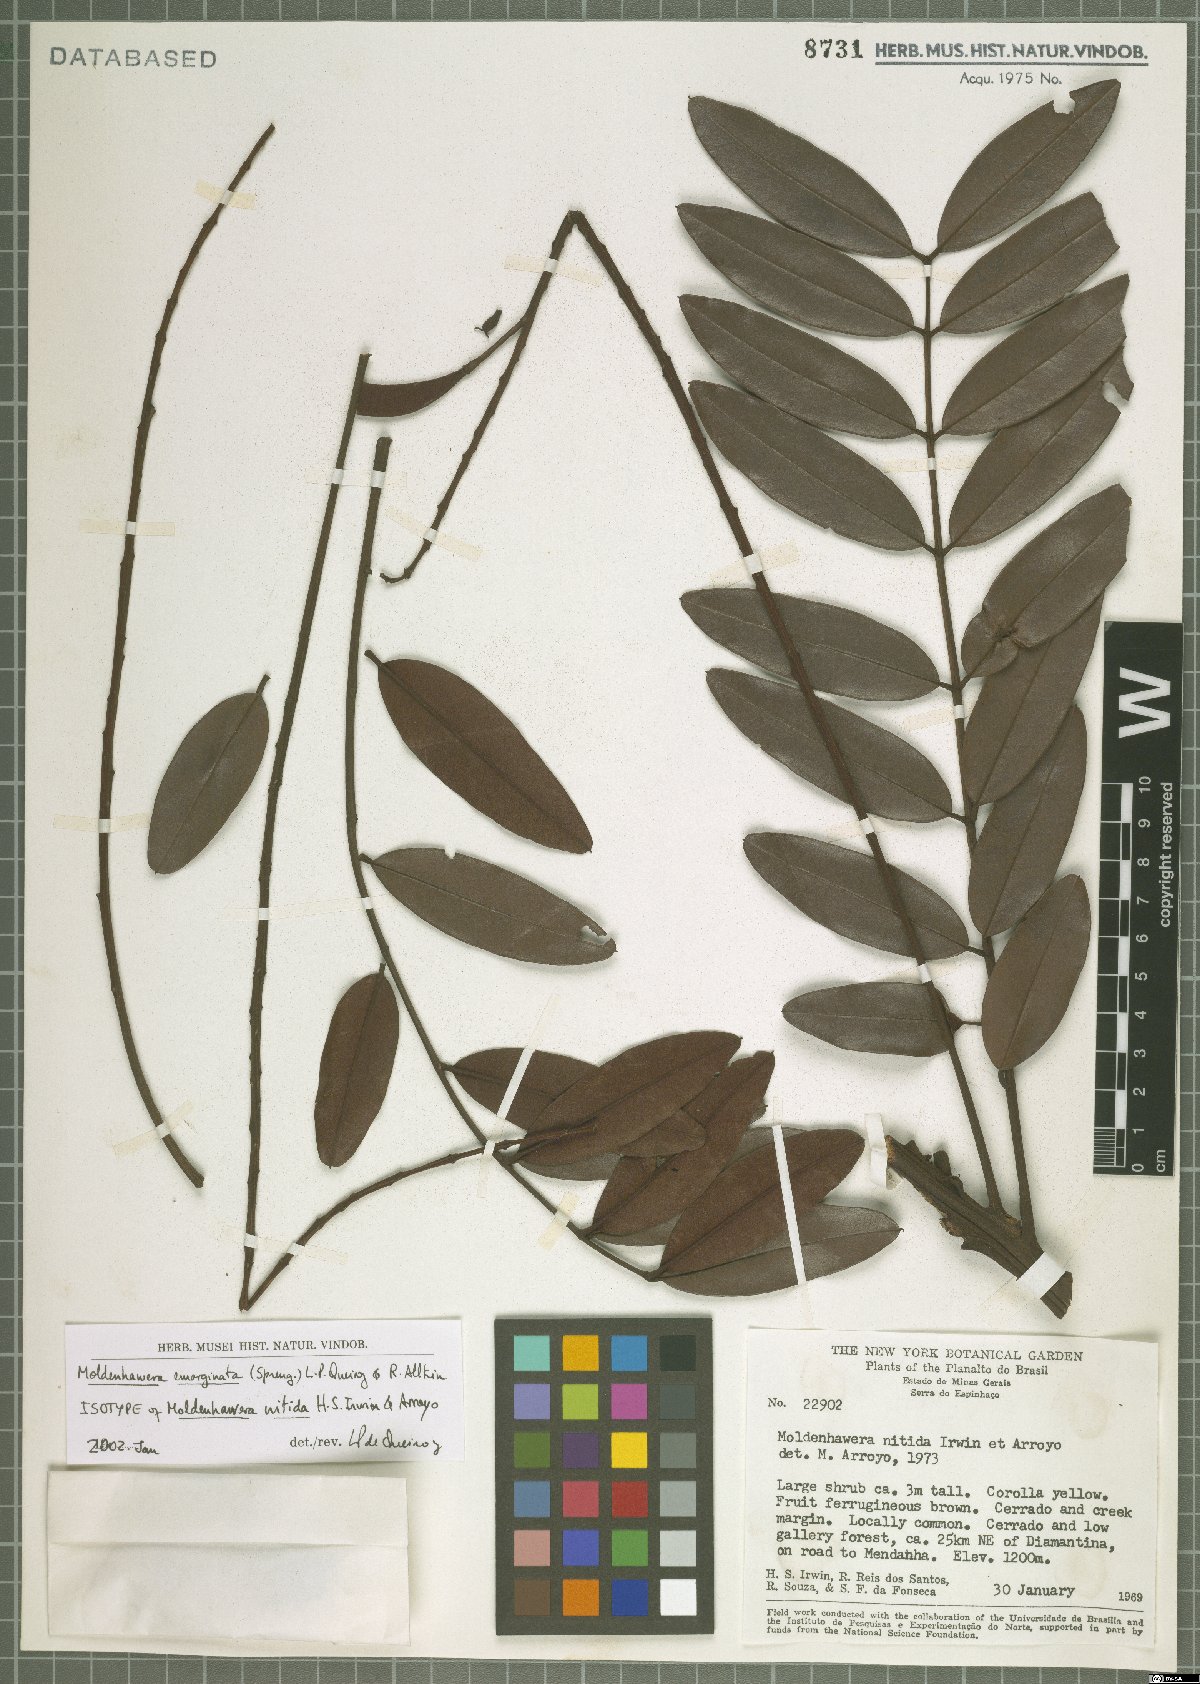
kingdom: Plantae
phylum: Tracheophyta
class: Magnoliopsida
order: Fabales
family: Fabaceae
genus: Moldenhawera
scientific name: Moldenhawera emarginata
